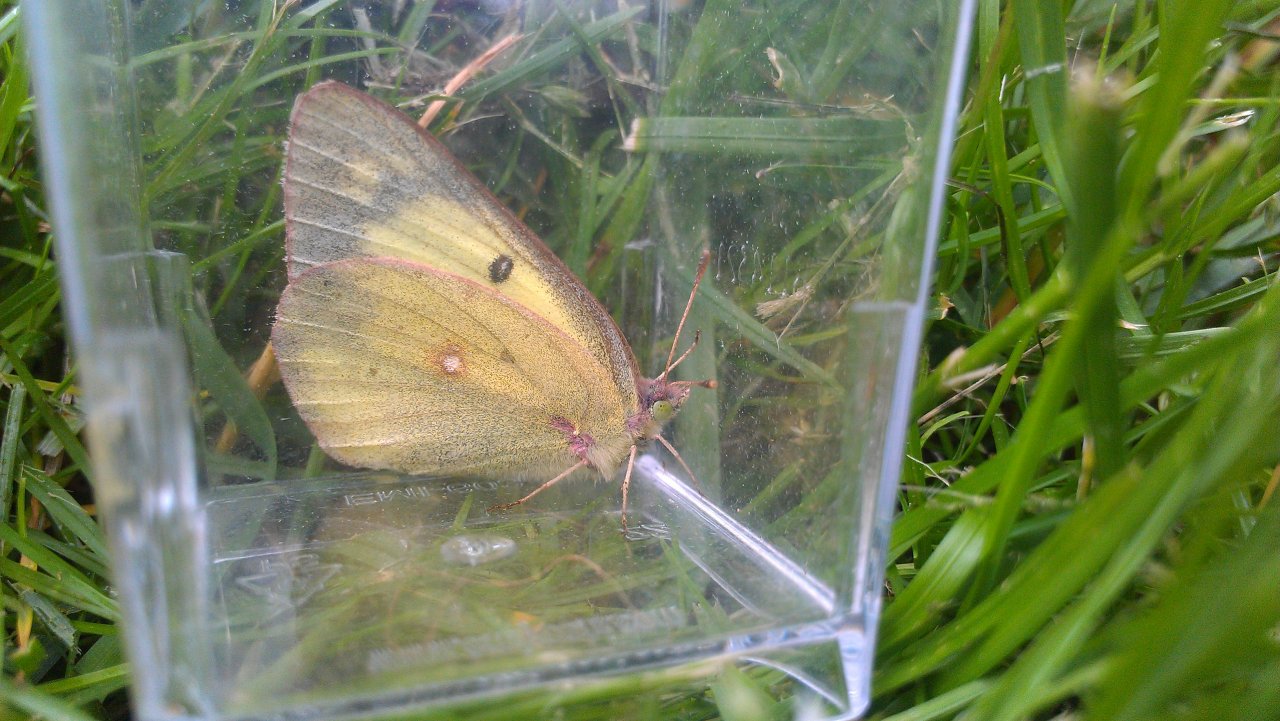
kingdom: Animalia
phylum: Arthropoda
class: Insecta
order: Lepidoptera
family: Pieridae
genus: Colias
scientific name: Colias philodice
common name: Clouded Sulphur
